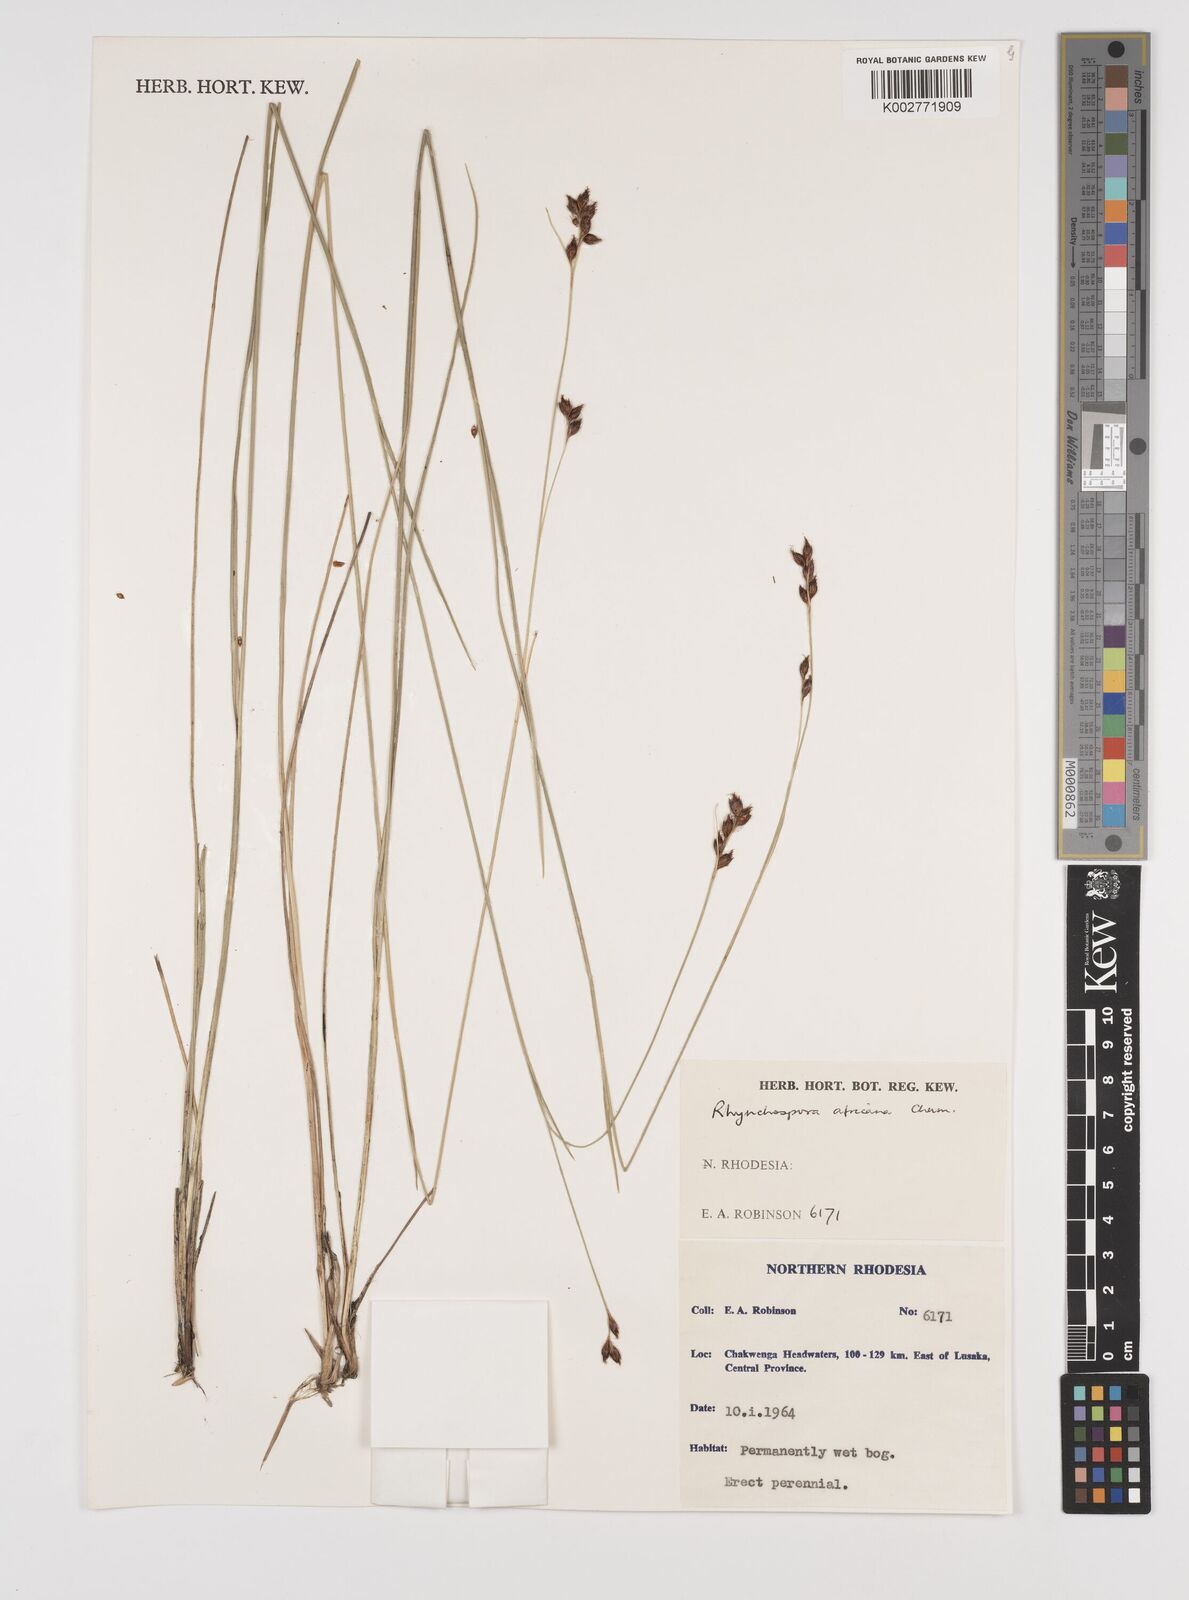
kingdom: Plantae
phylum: Tracheophyta
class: Liliopsida
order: Poales
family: Cyperaceae
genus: Rhynchospora
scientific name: Rhynchospora angolensis
